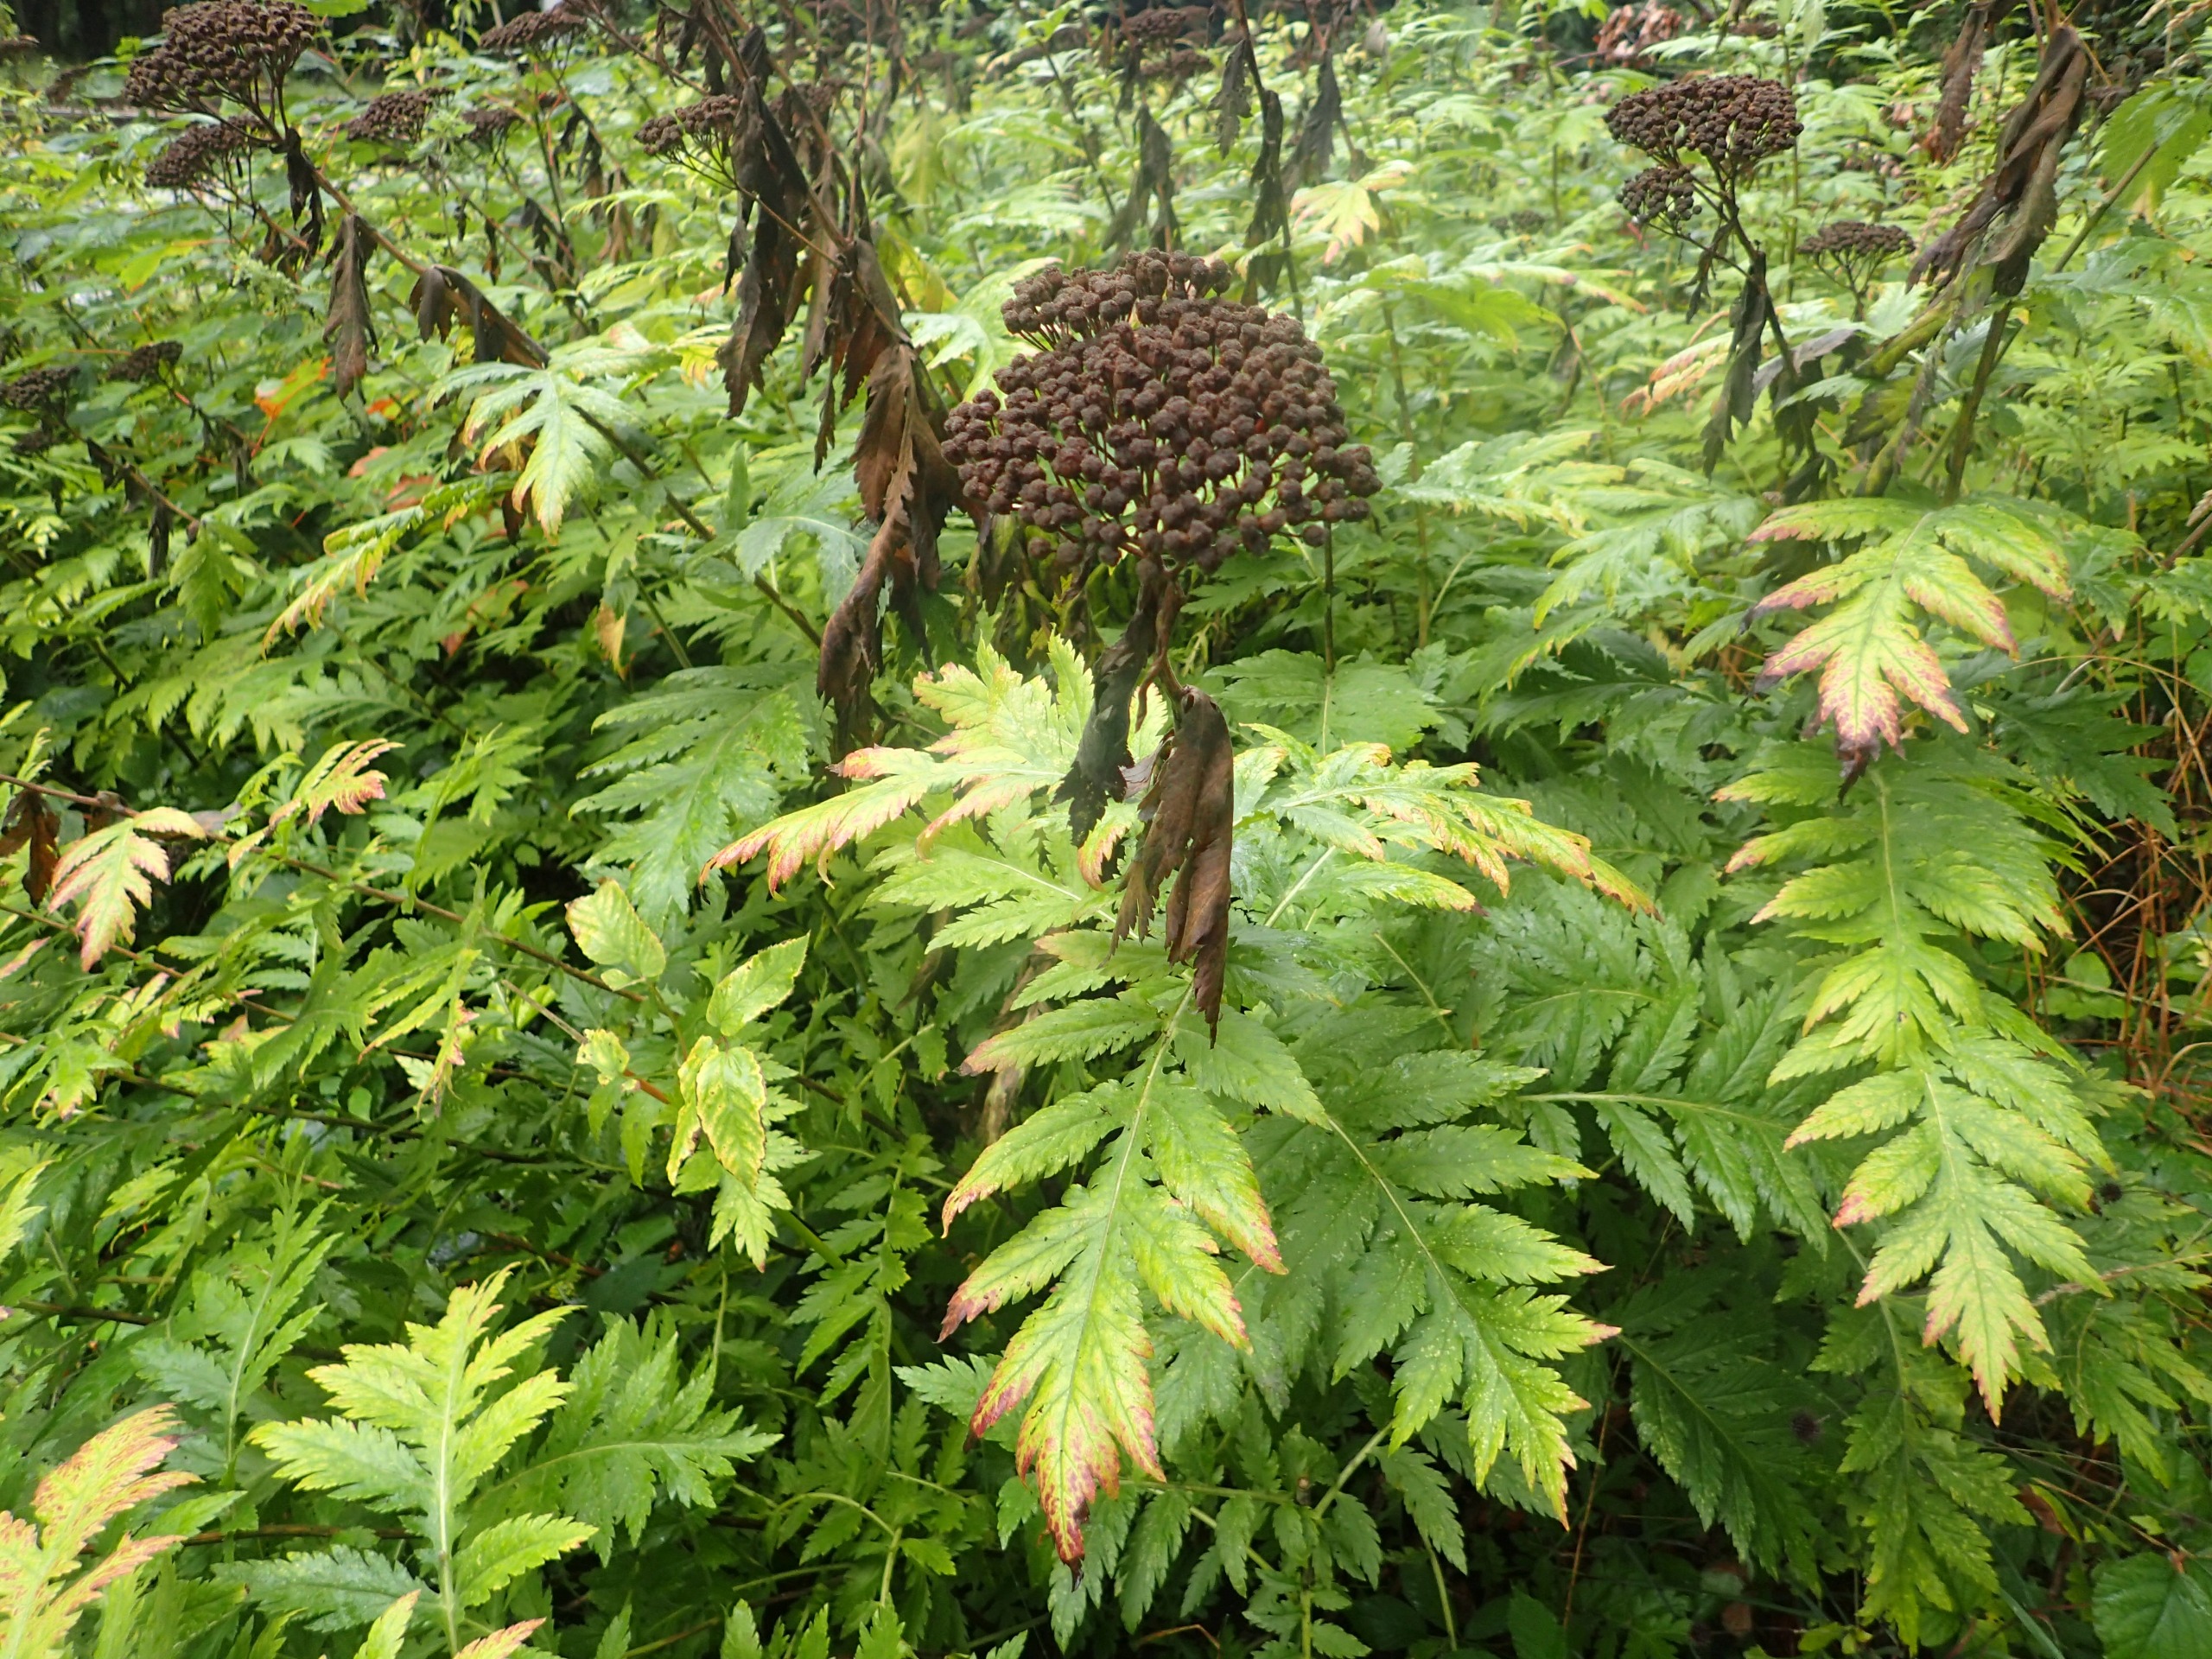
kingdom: Plantae
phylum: Tracheophyta
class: Magnoliopsida
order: Asterales
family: Asteraceae
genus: Tanacetum
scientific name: Tanacetum macrophyllum
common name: Røllike-matrem
